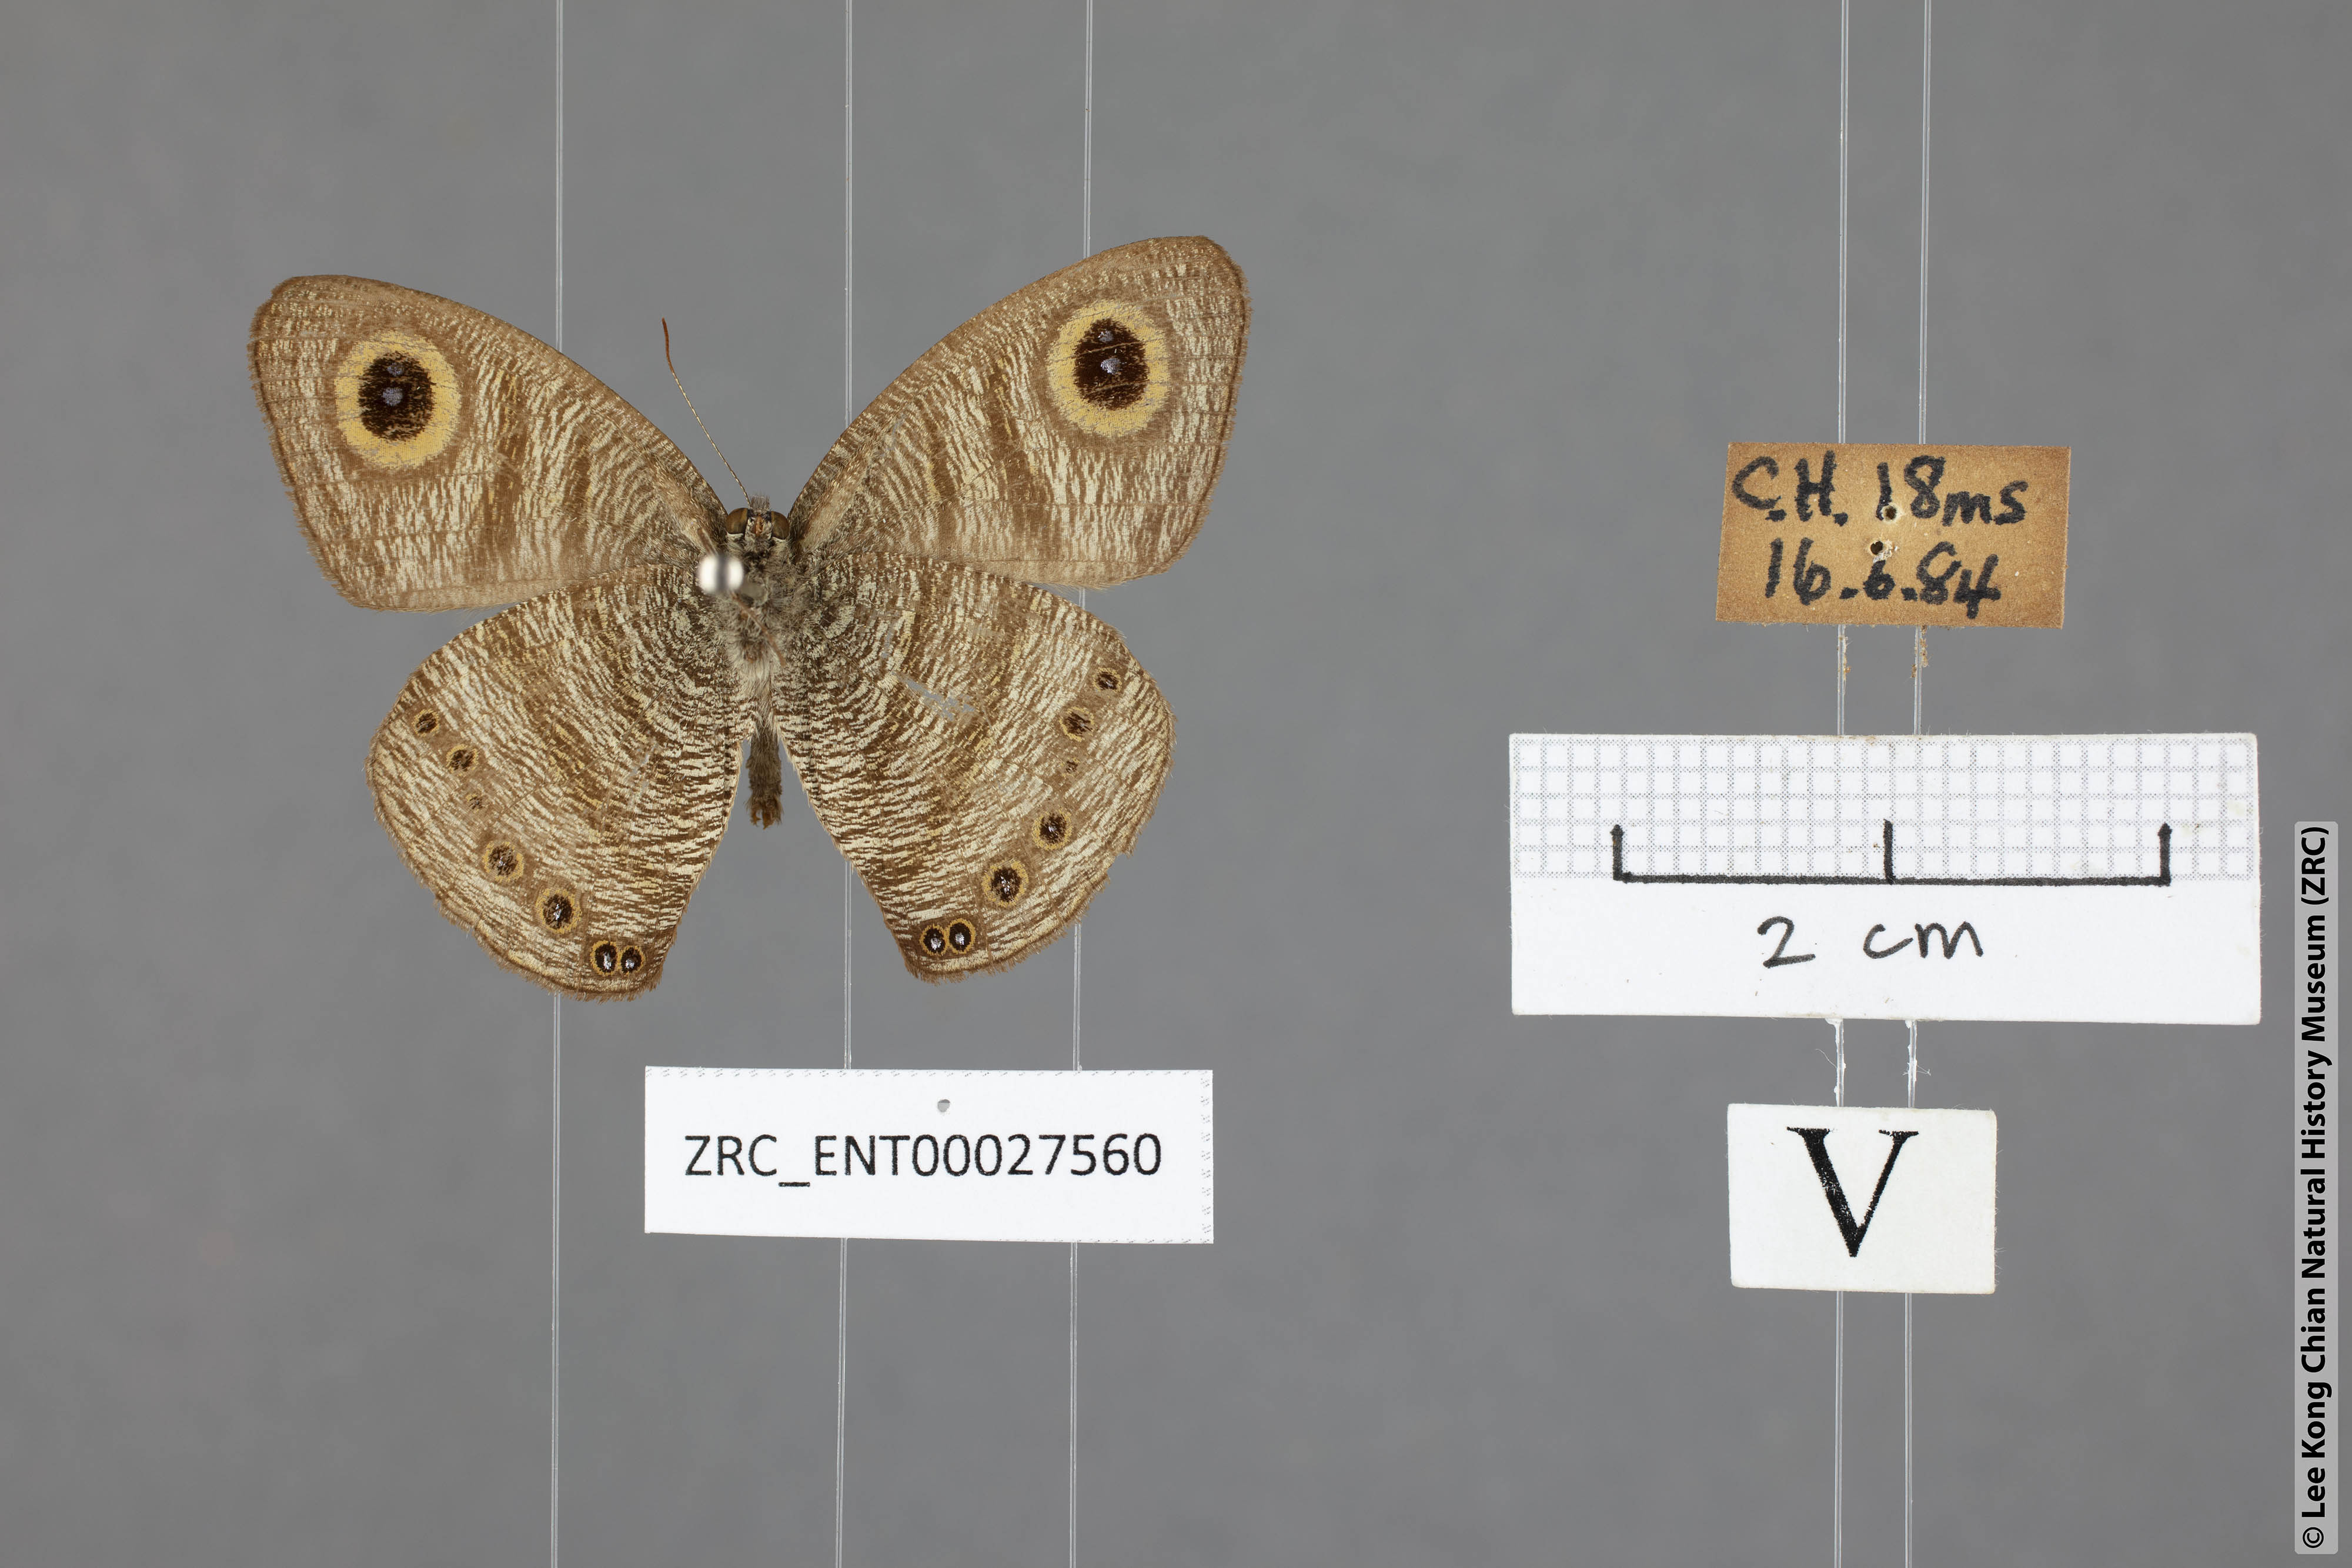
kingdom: Animalia
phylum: Arthropoda
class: Insecta
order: Lepidoptera
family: Nymphalidae
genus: Ypthima
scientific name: Ypthima fasciata
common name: Malayan six-ring
